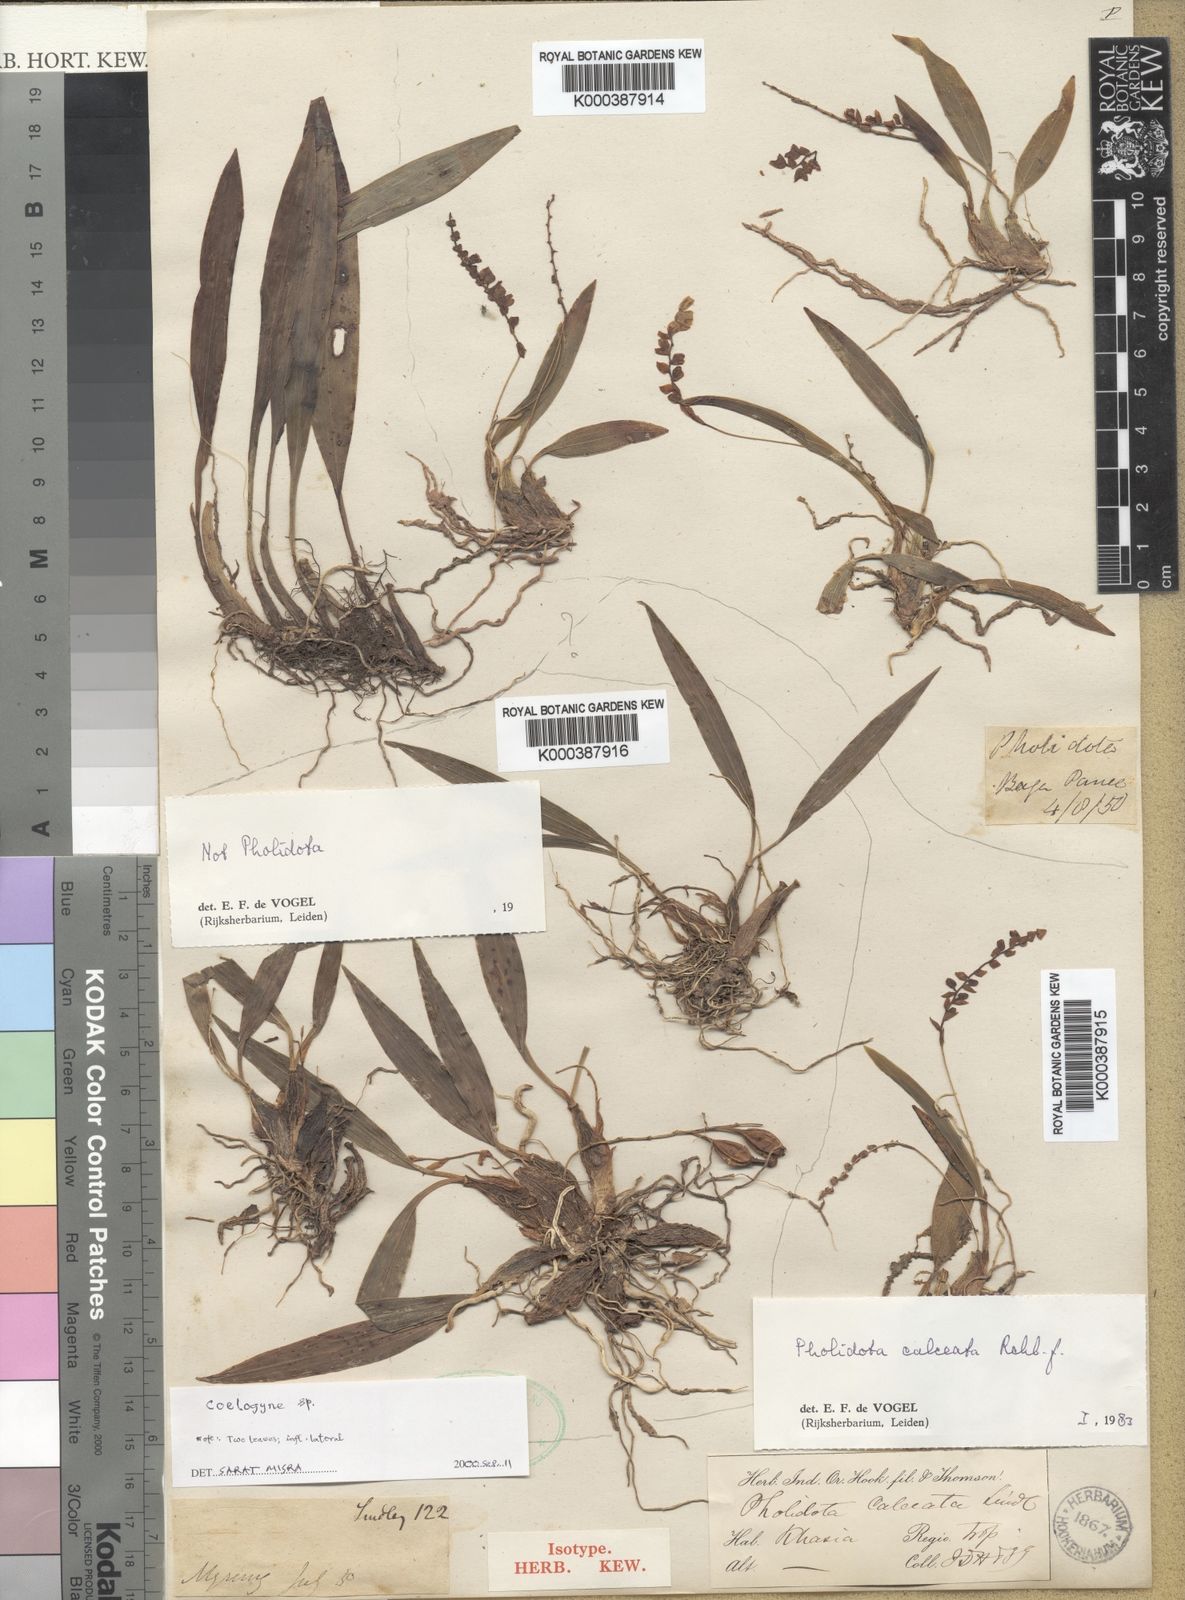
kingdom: Plantae
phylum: Tracheophyta
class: Liliopsida
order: Asparagales
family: Orchidaceae
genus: Coelogyne
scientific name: Coelogyne pallida
